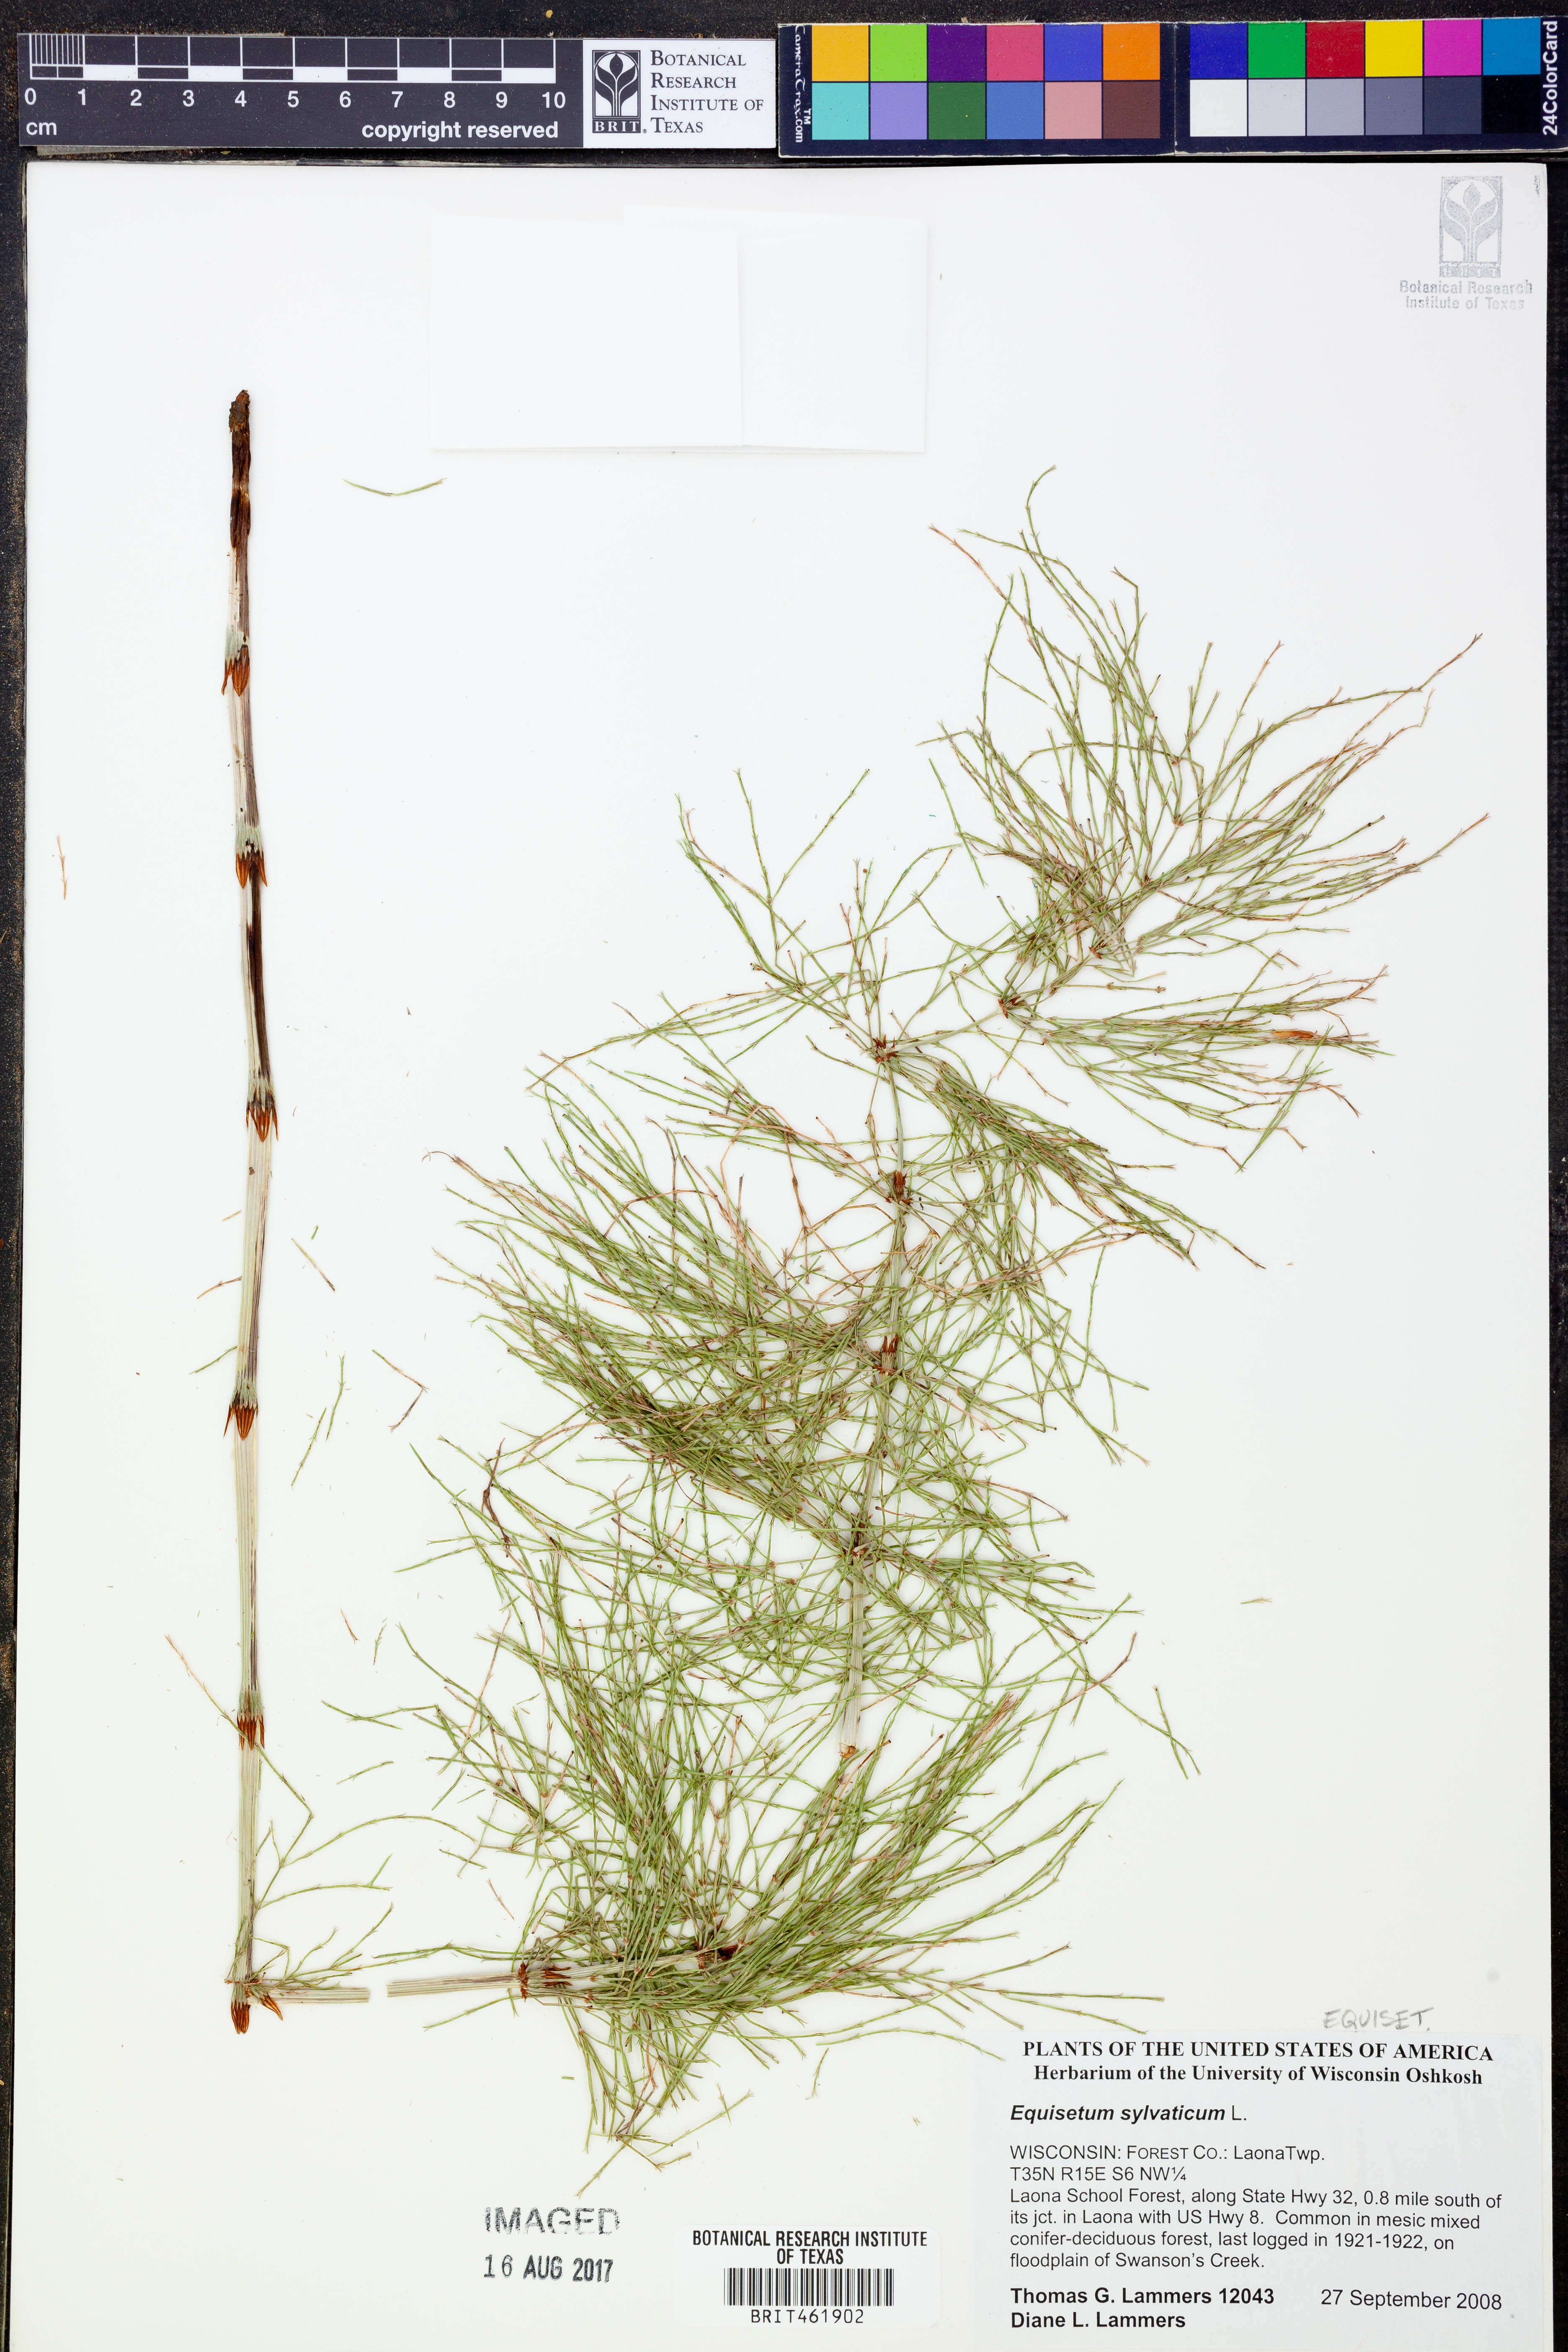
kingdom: Plantae
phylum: Tracheophyta
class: Polypodiopsida
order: Equisetales
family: Equisetaceae
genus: Equisetum
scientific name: Equisetum sylvaticum
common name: Wood horsetail
